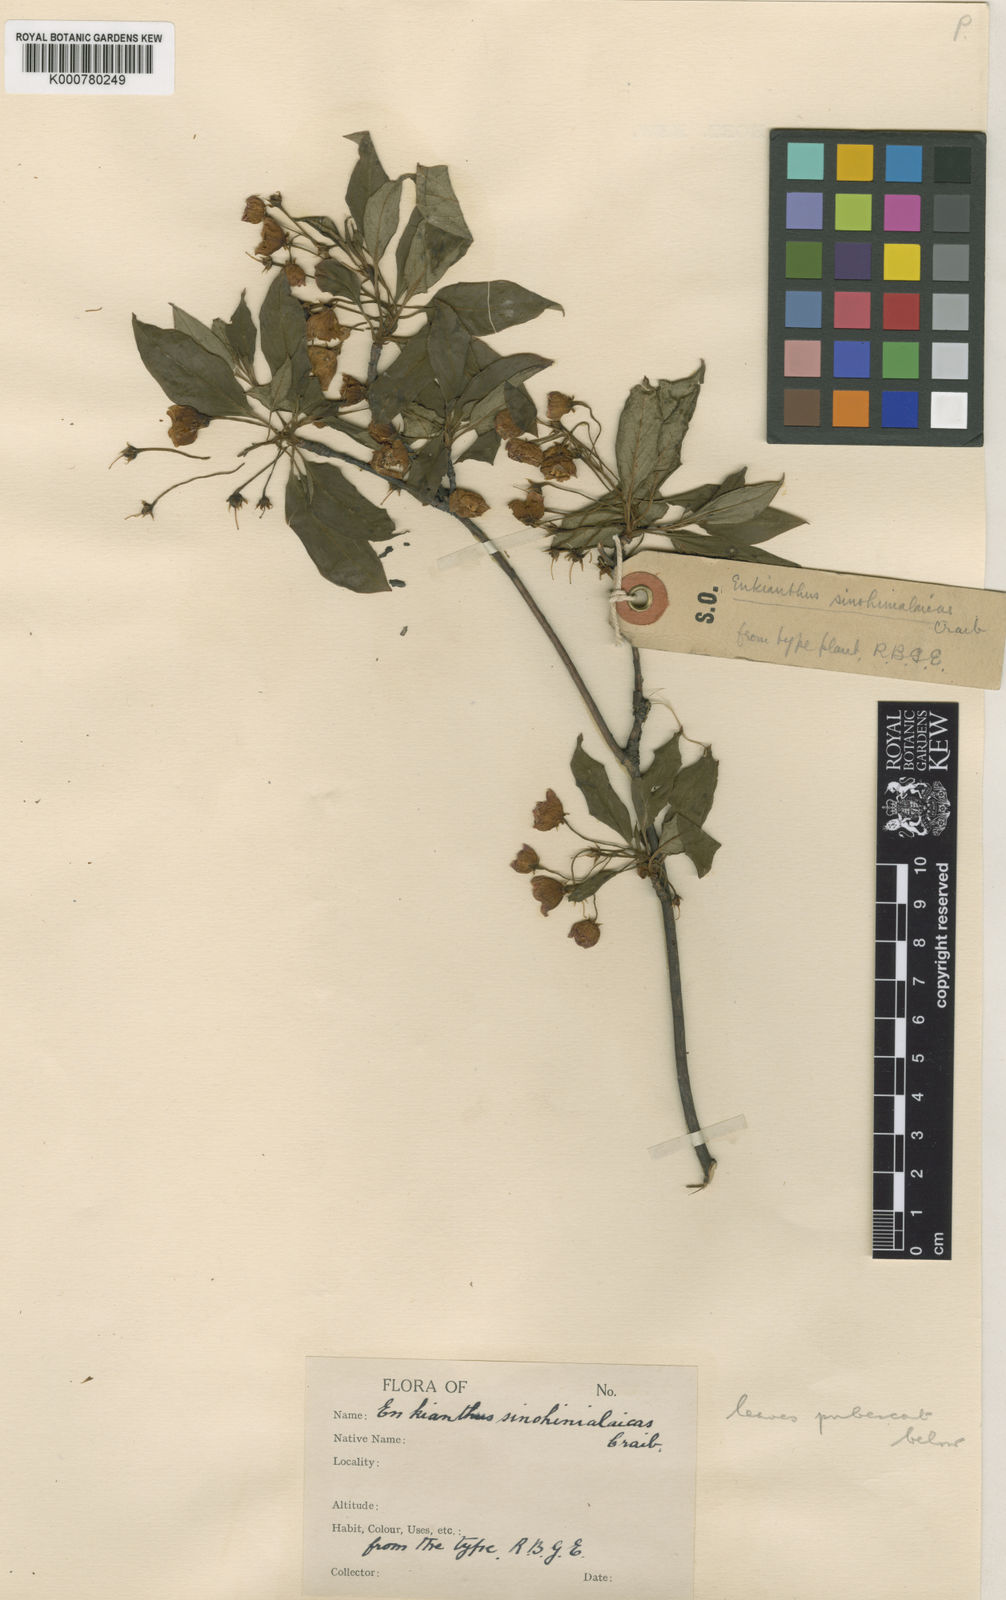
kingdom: Plantae
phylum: Tracheophyta
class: Magnoliopsida
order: Ericales
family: Ericaceae
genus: Enkianthus
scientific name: Enkianthus deflexus
